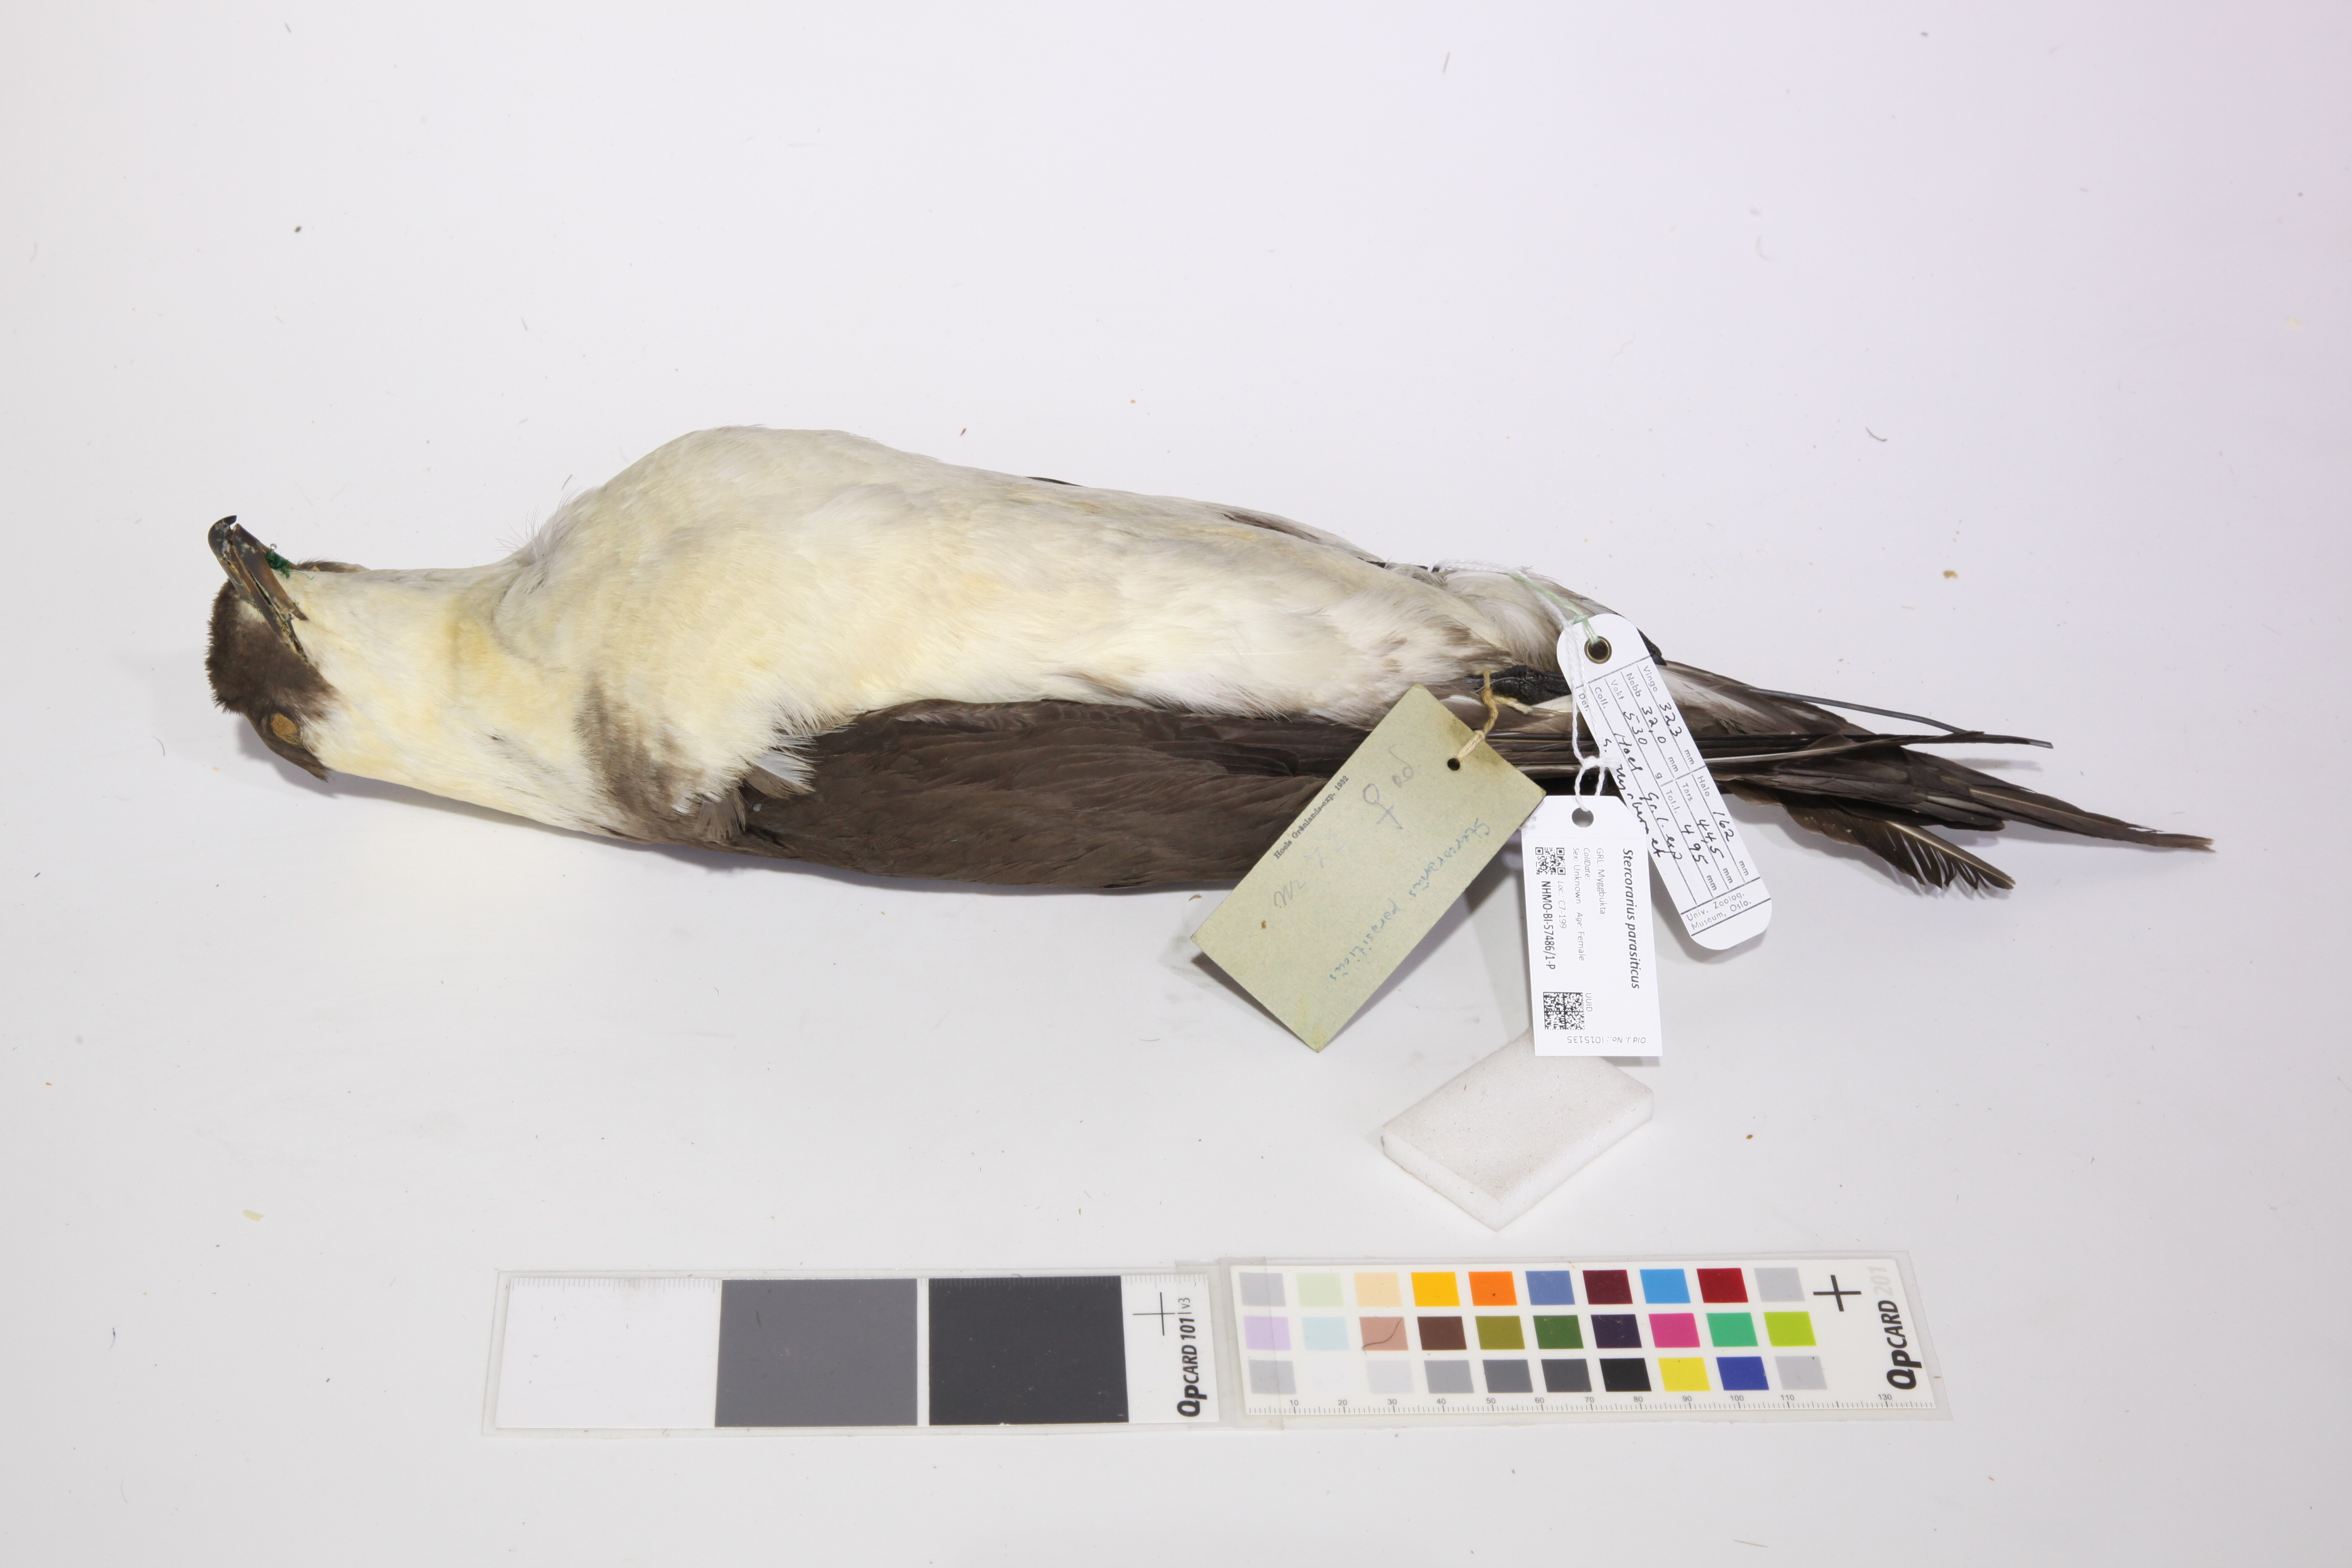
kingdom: Animalia
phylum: Chordata
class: Aves
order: Charadriiformes
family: Stercorariidae
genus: Stercorarius
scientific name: Stercorarius parasiticus
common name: Parasitic jaeger
